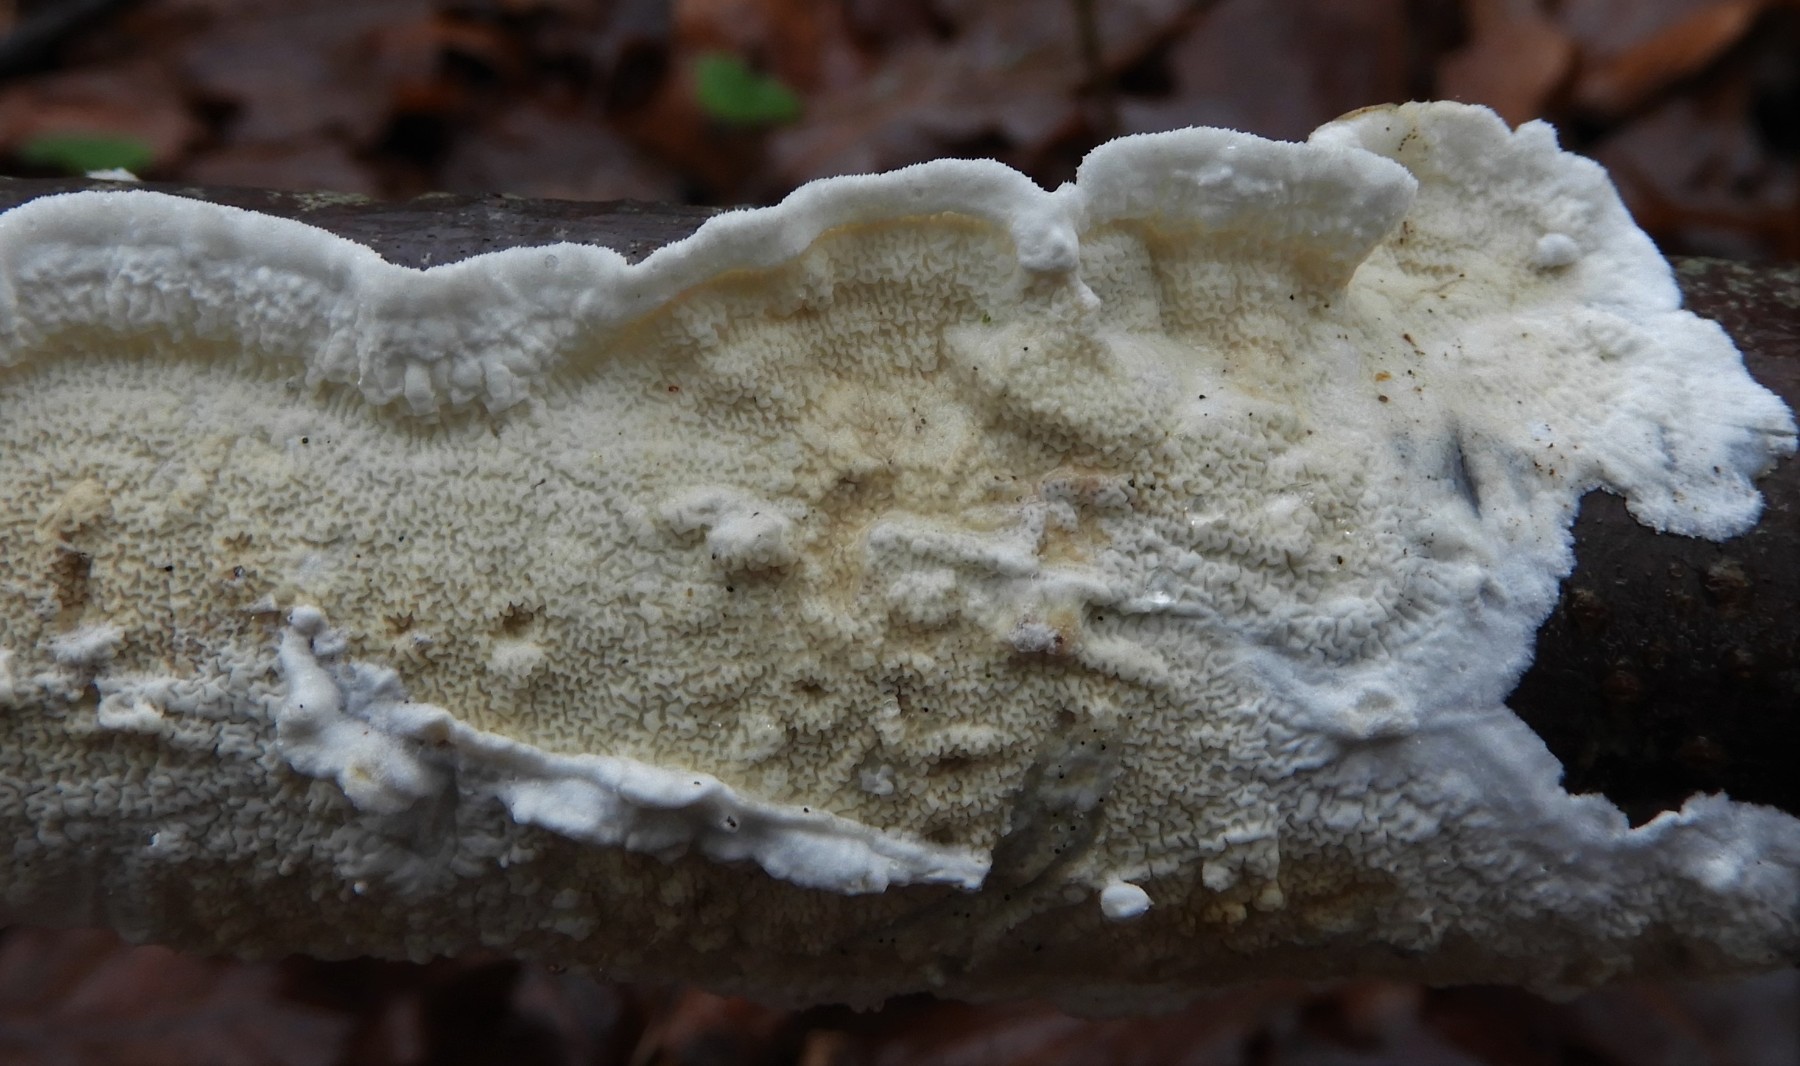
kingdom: Fungi
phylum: Basidiomycota
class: Agaricomycetes
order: Polyporales
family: Irpicaceae
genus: Byssomerulius
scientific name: Byssomerulius corium
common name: læder-åresvamp
